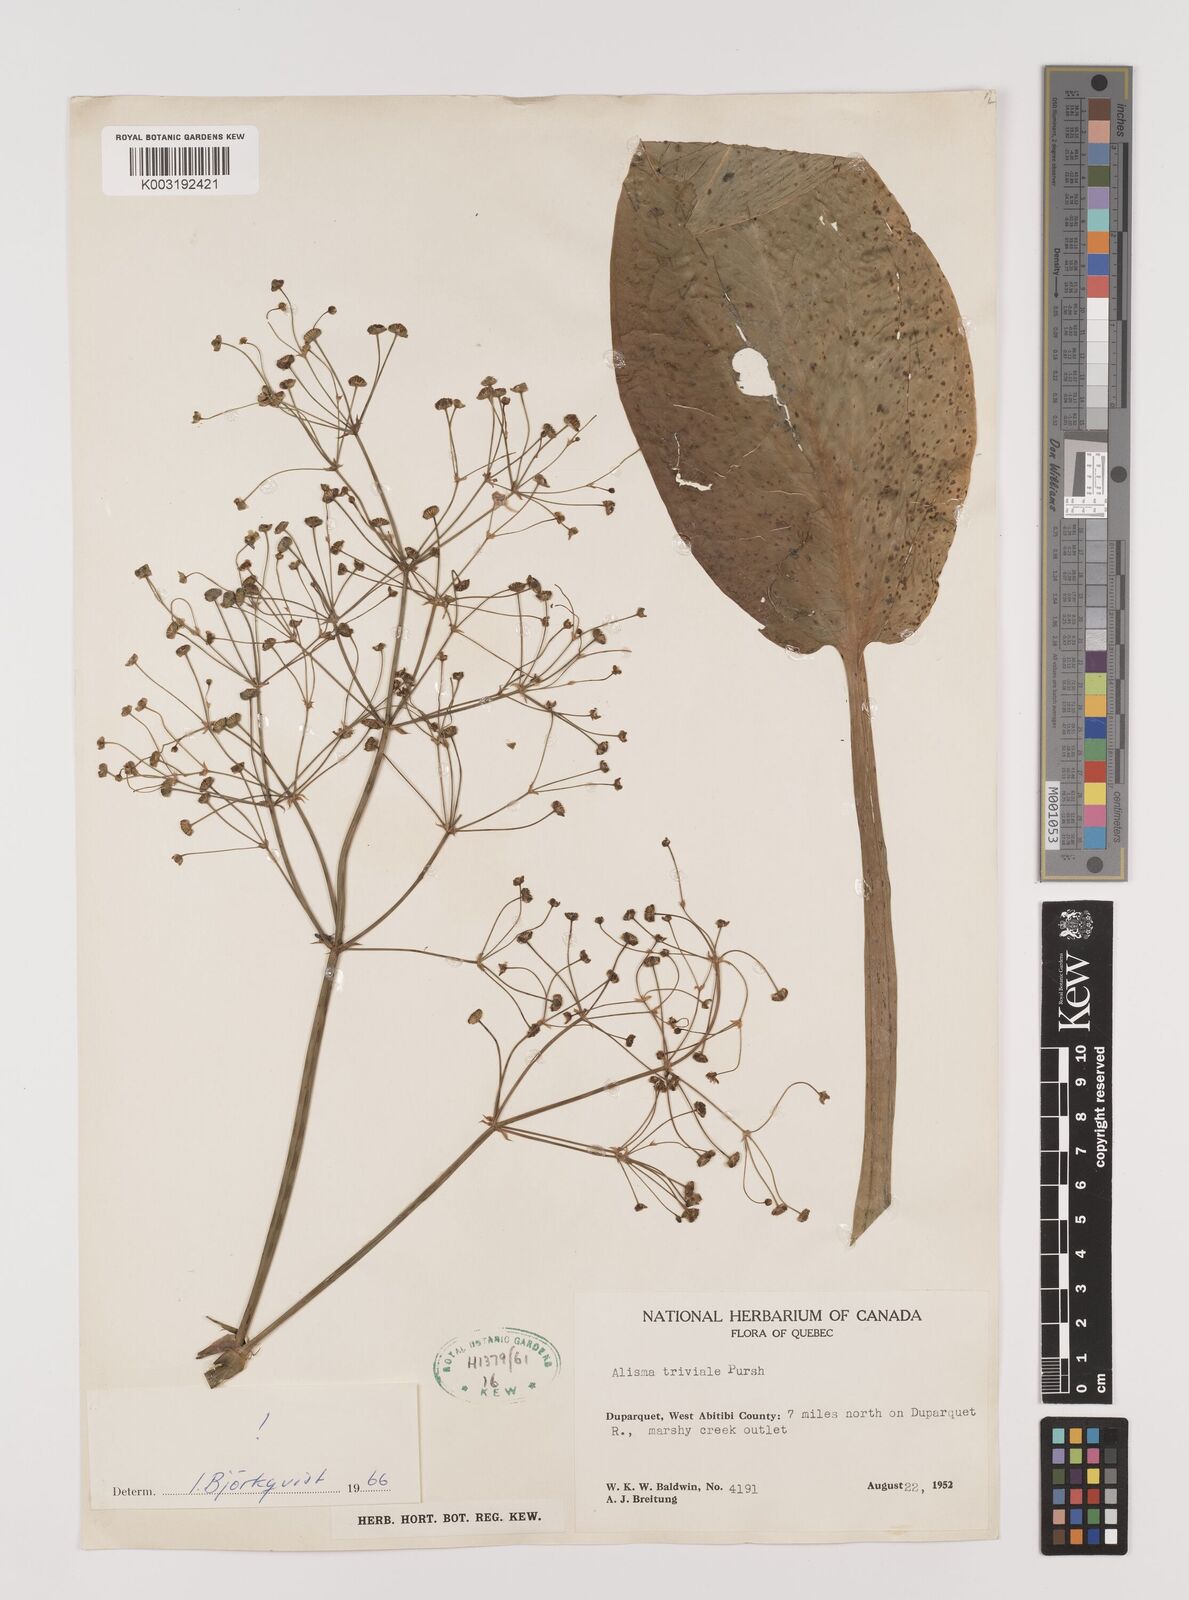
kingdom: Plantae
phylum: Tracheophyta
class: Liliopsida
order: Alismatales
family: Alismataceae
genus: Alisma
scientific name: Alisma plantago-aquatica
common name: Water-plantain
